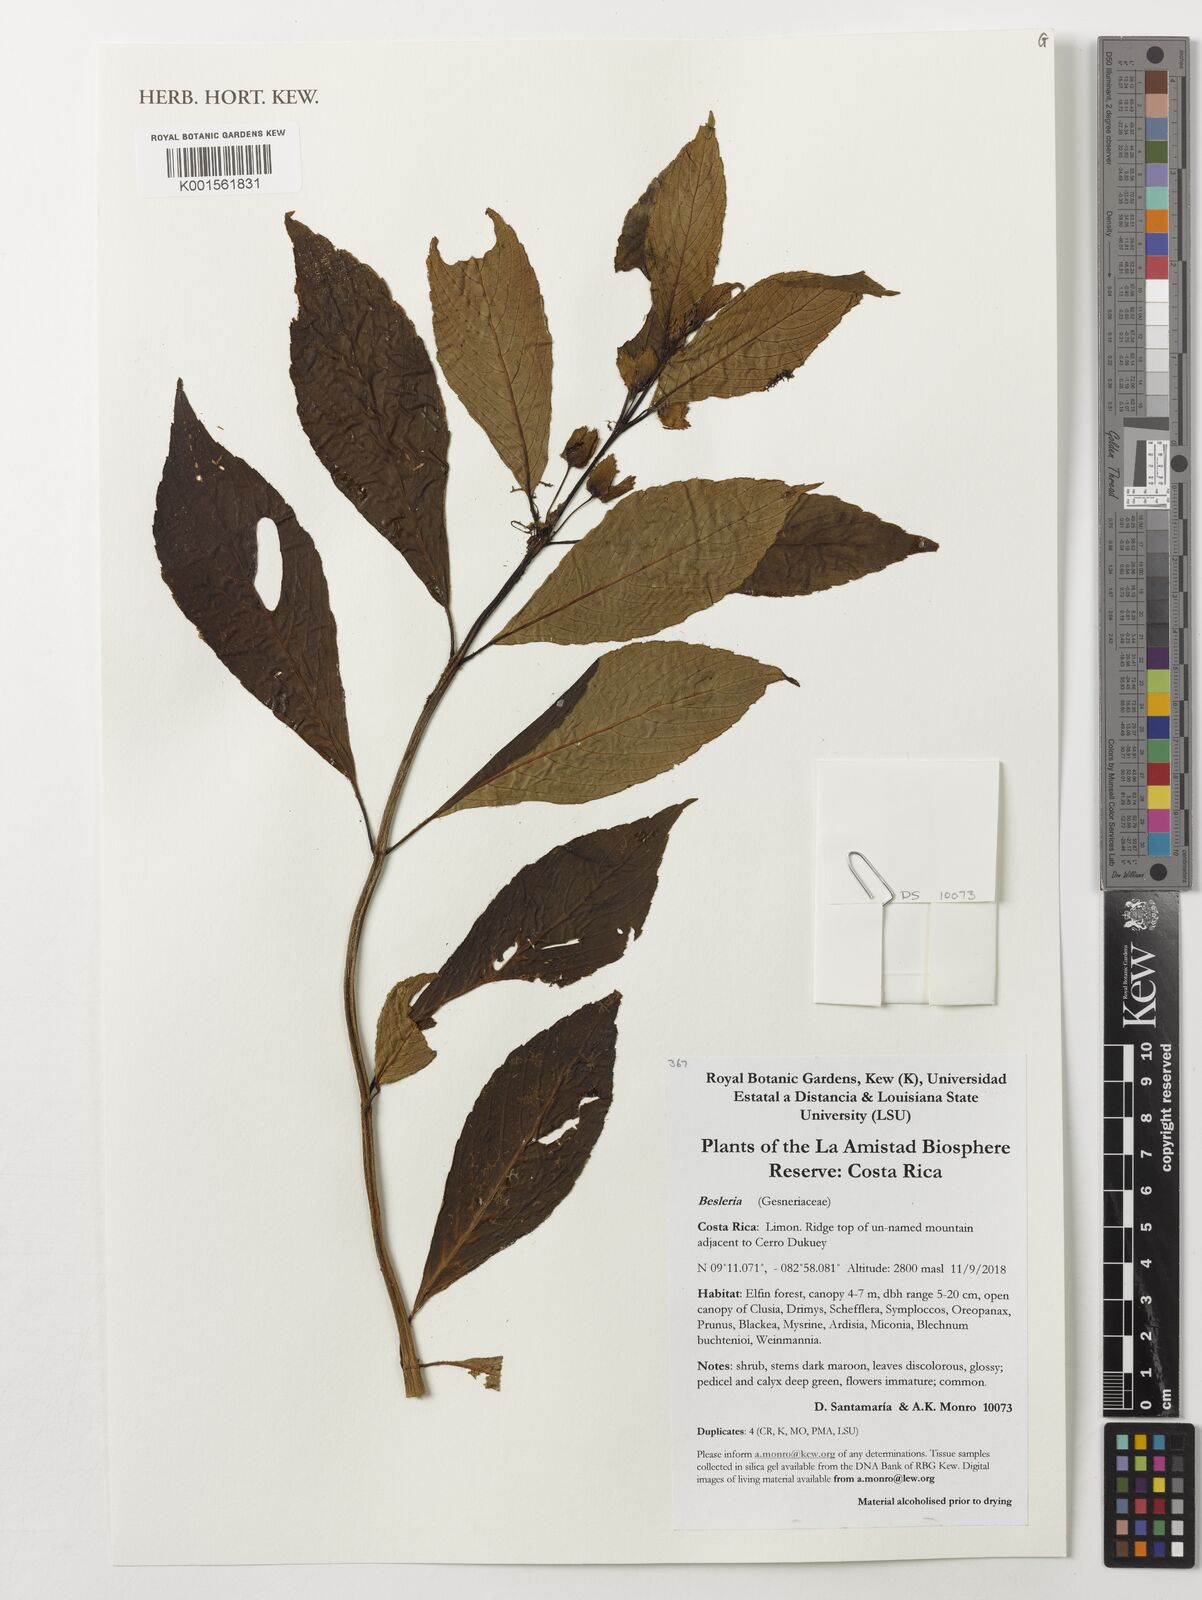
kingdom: Plantae
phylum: Tracheophyta
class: Magnoliopsida
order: Lamiales
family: Gesneriaceae
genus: Besleria
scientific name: Besleria
